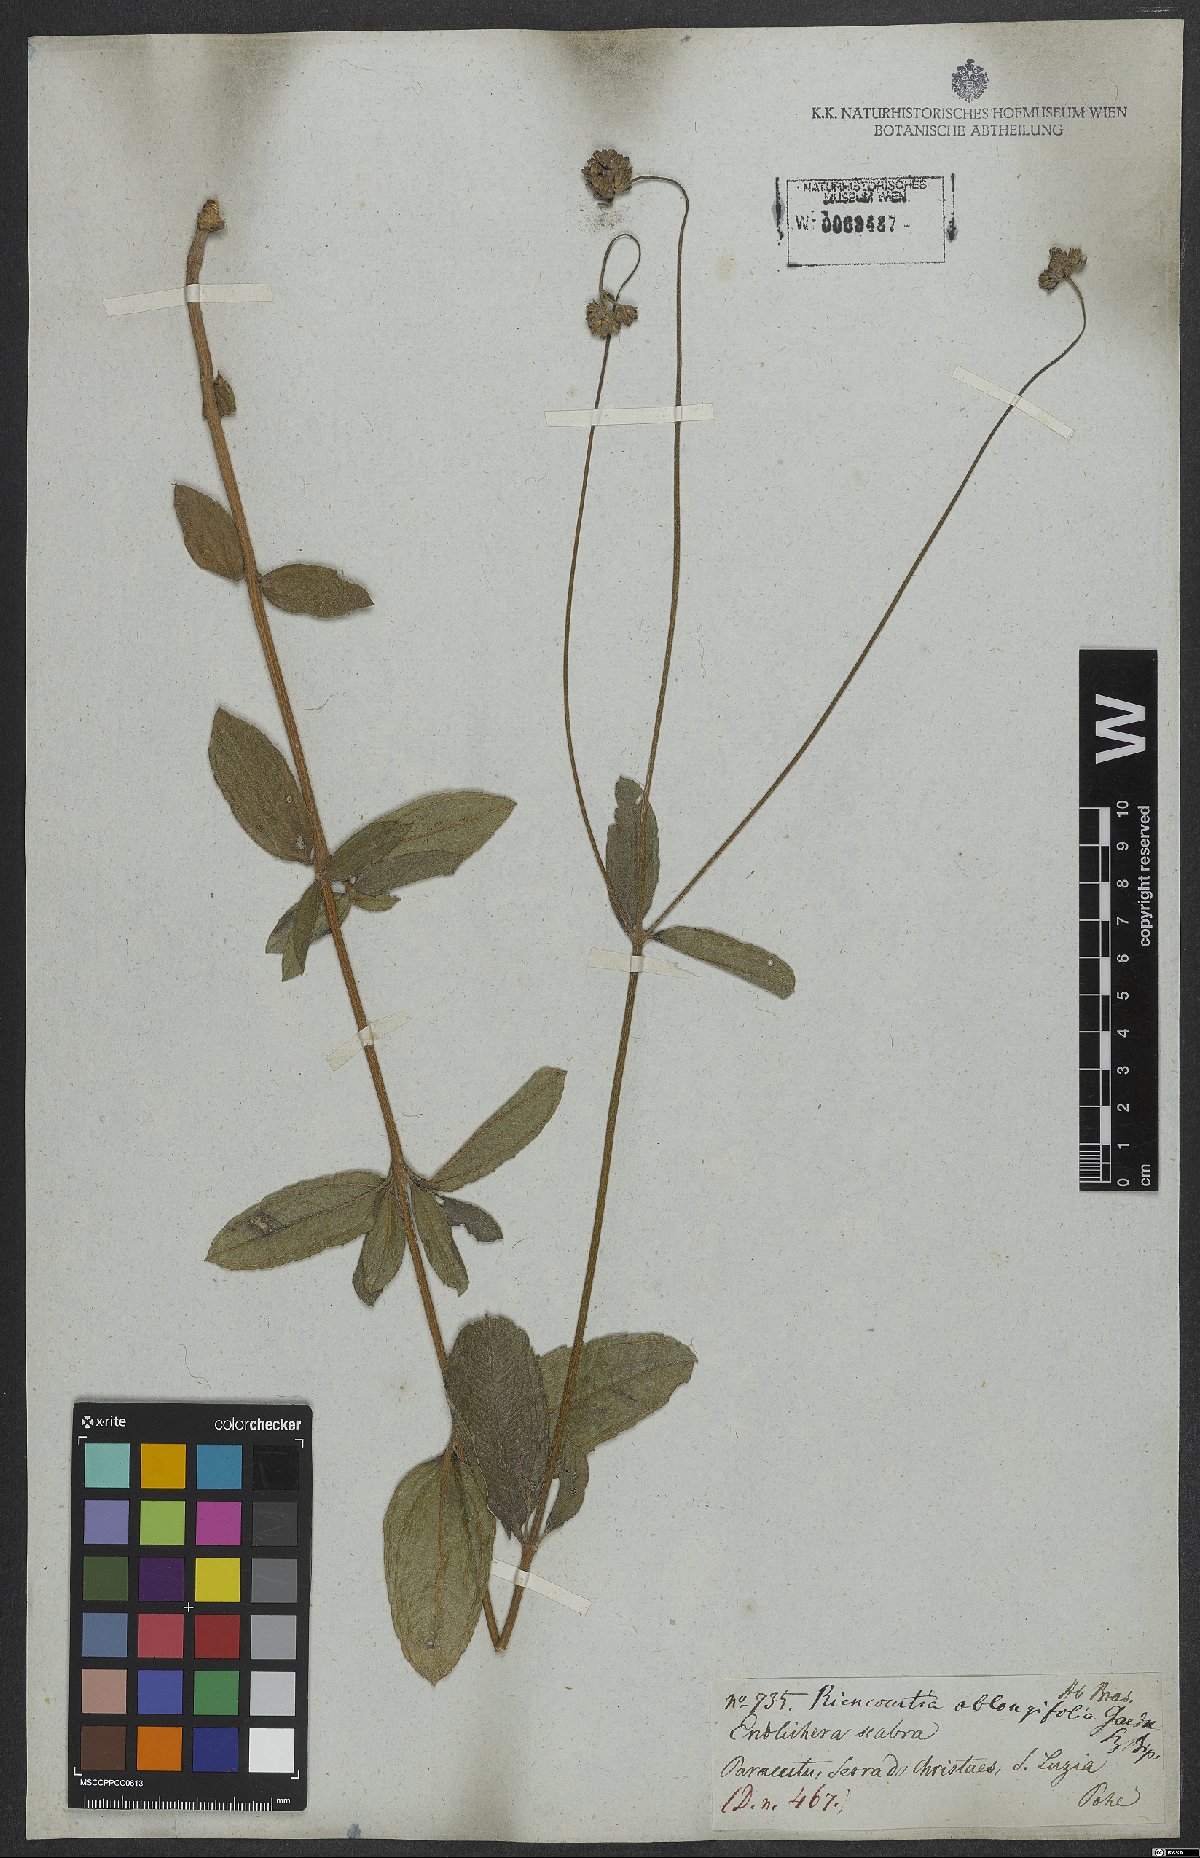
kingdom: Plantae
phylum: Tracheophyta
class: Magnoliopsida
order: Asterales
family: Asteraceae
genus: Riencourtia
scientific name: Riencourtia oblongifolia
